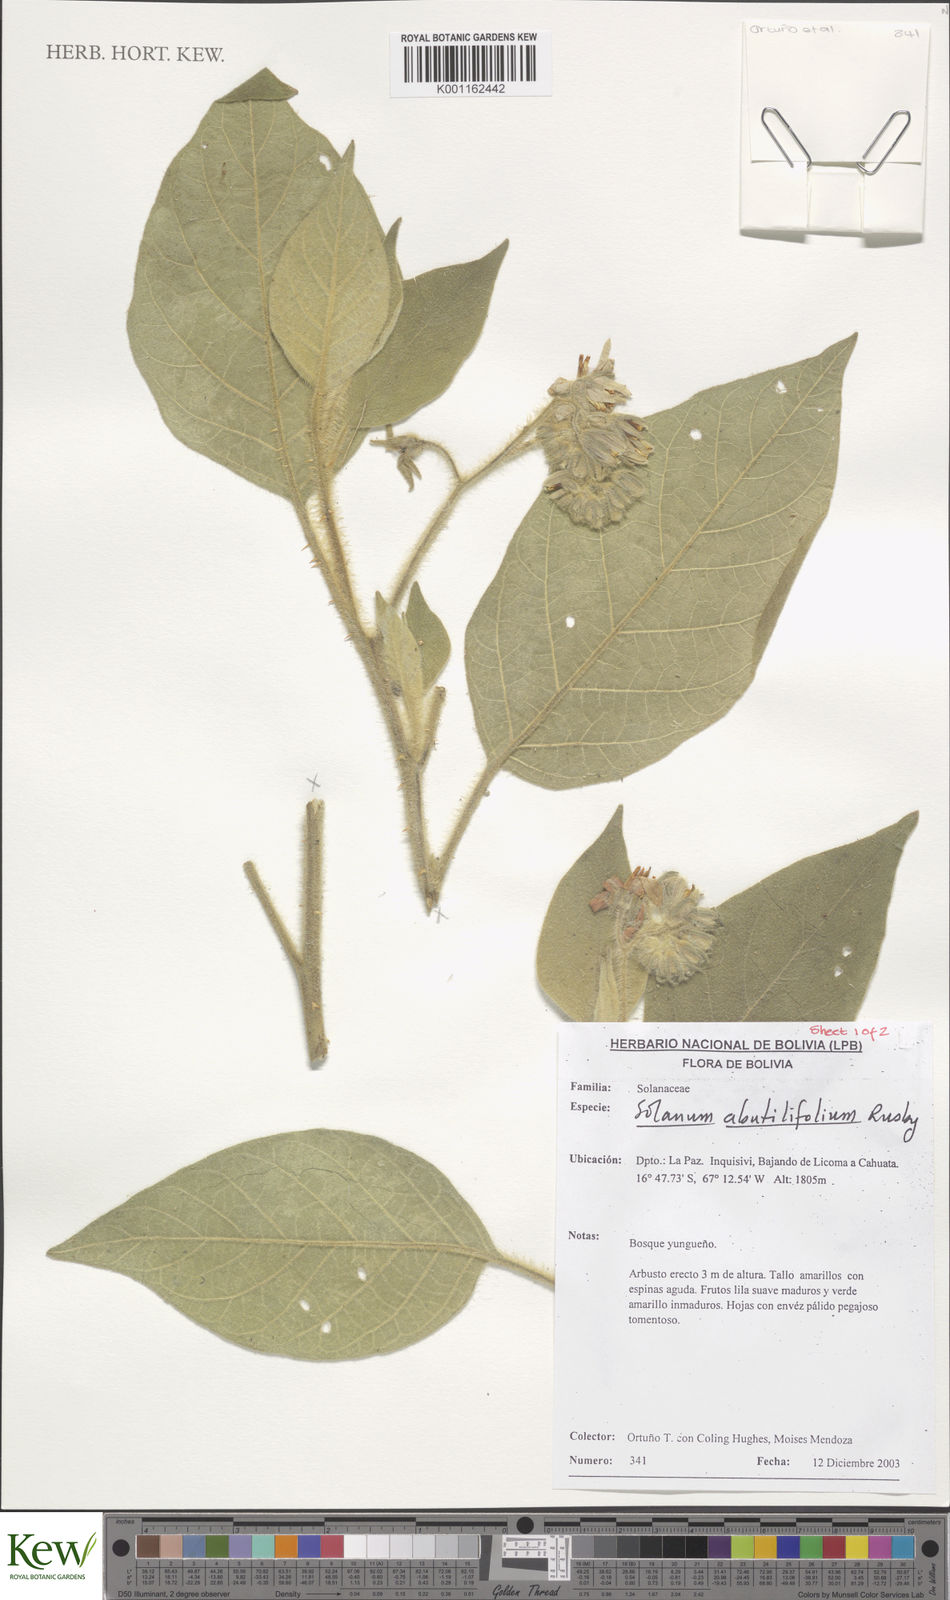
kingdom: Plantae
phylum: Tracheophyta
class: Magnoliopsida
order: Solanales
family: Solanaceae
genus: Solanum
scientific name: Solanum abutilifolium
